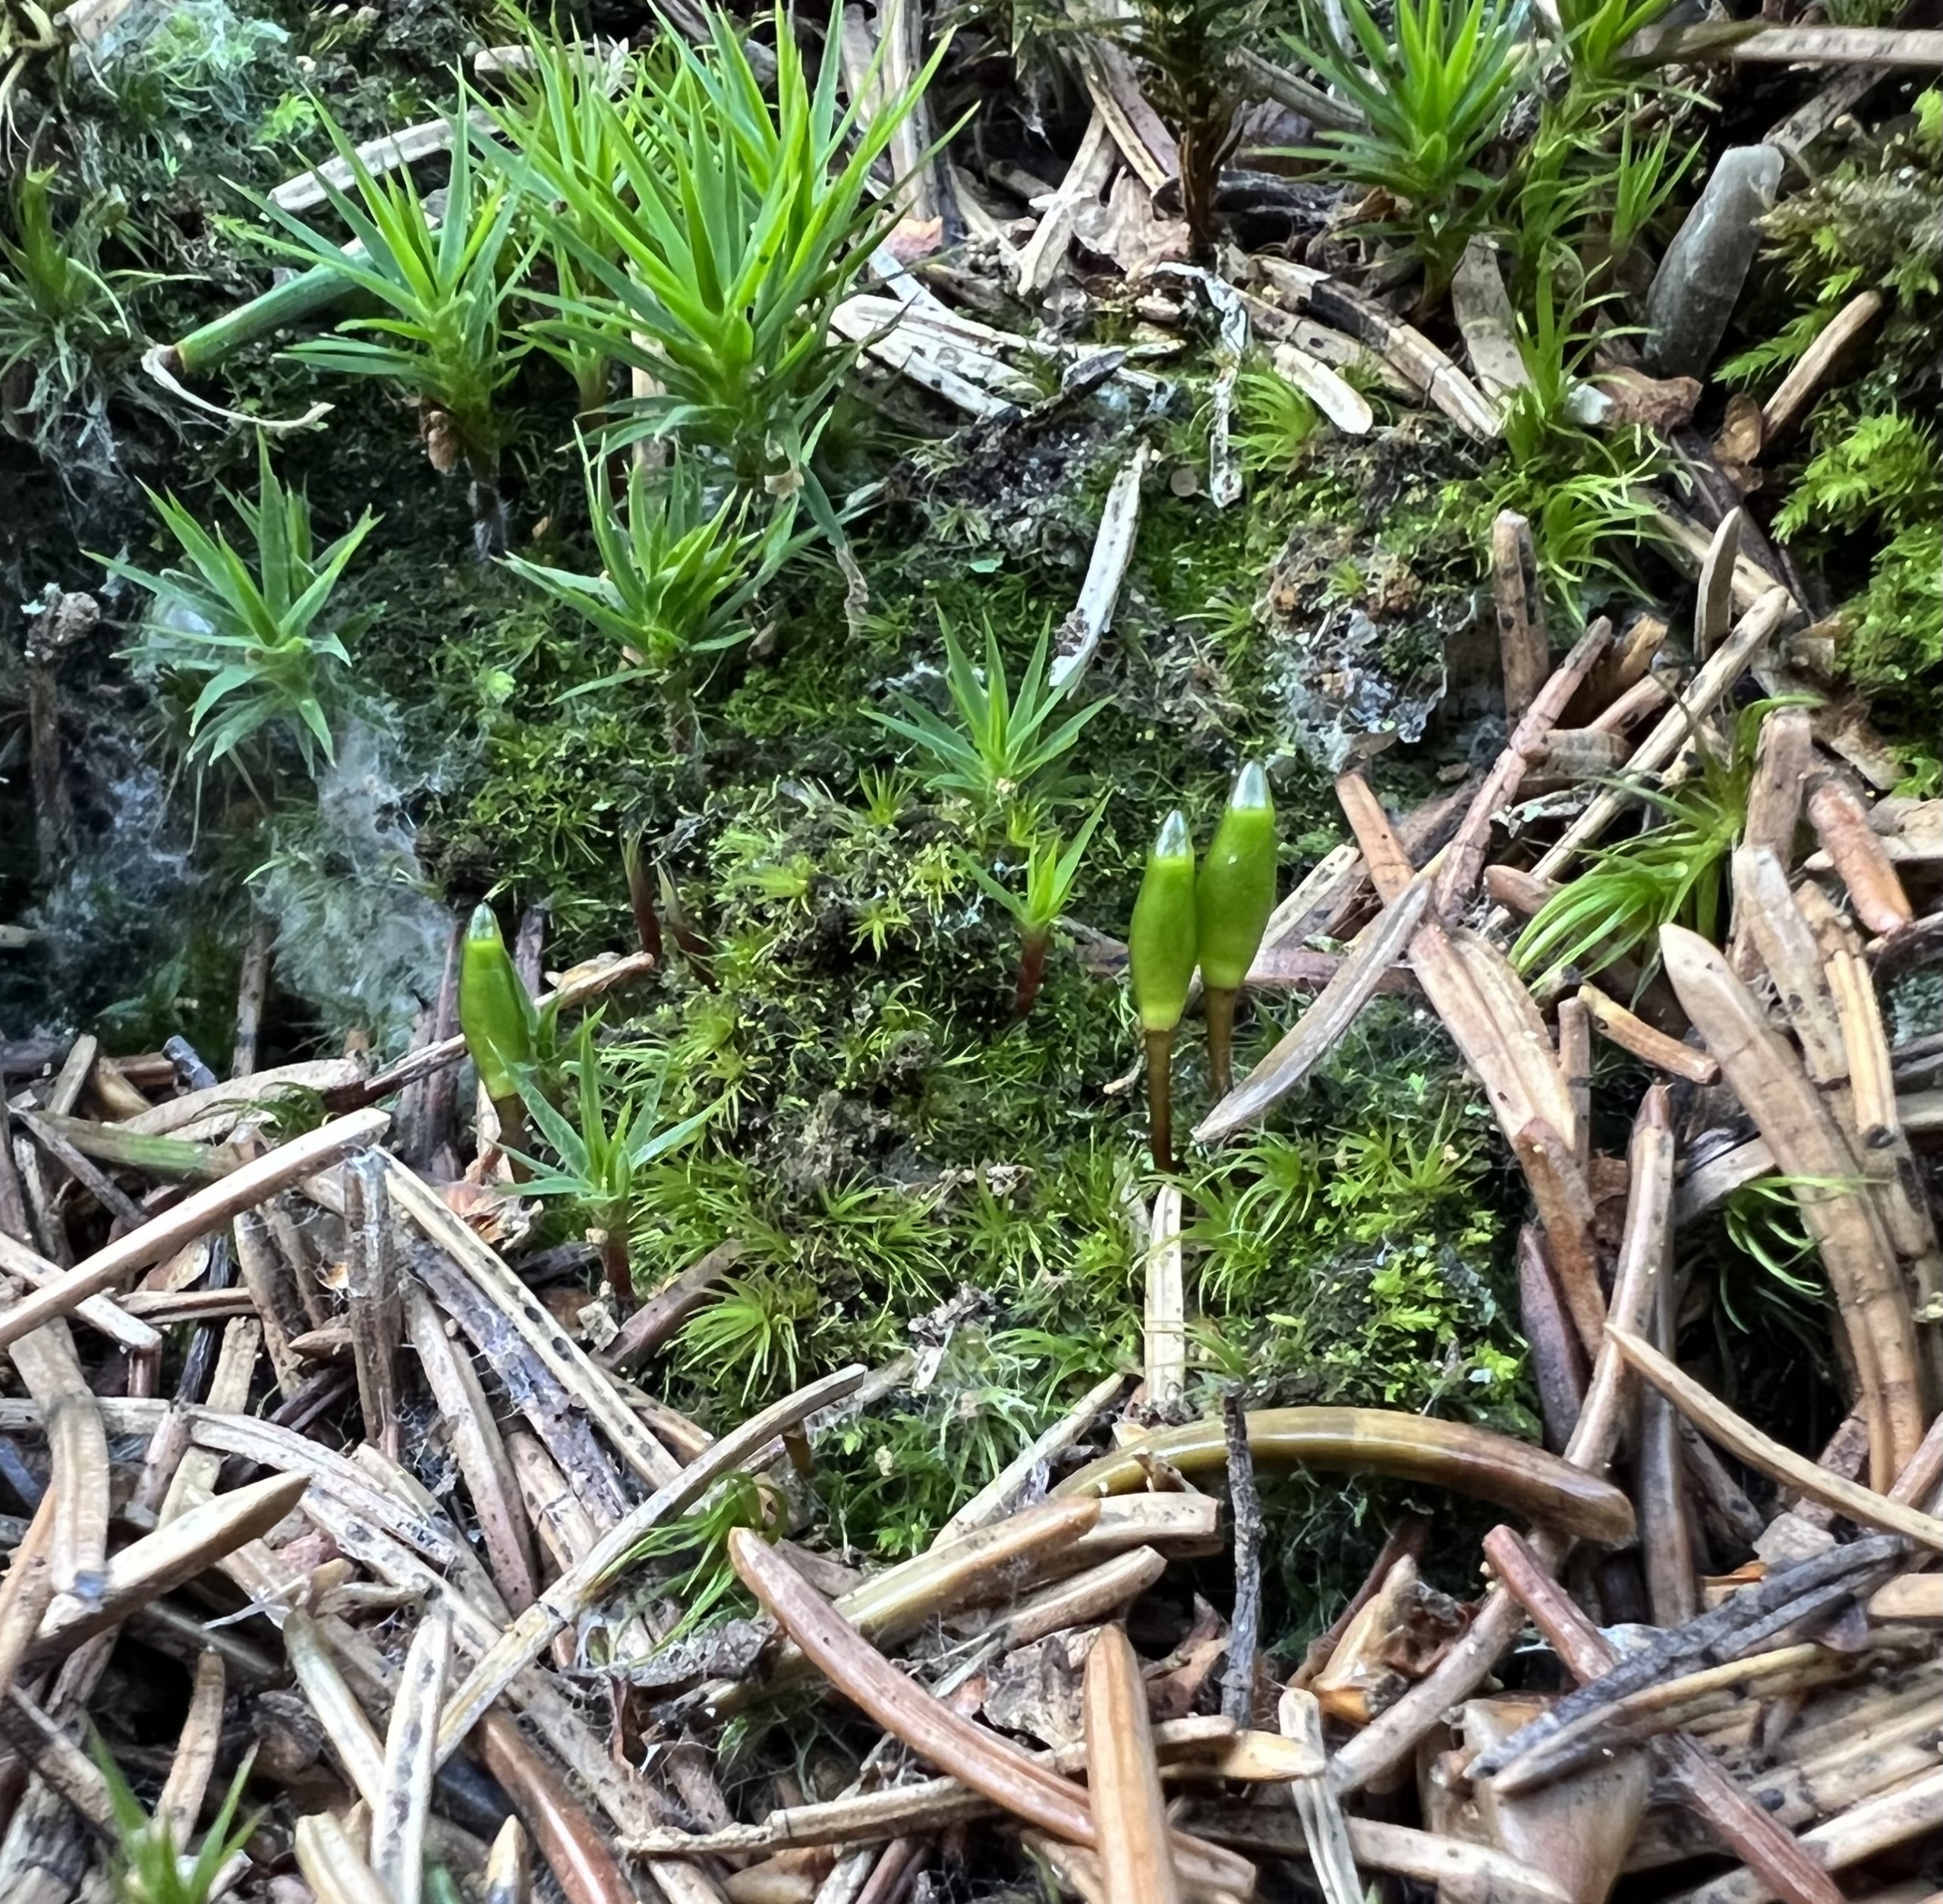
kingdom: Plantae
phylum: Bryophyta
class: Bryopsida
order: Buxbaumiales
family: Buxbaumiaceae
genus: Buxbaumia
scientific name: Buxbaumia viridis
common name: Grøn buxbaumia
